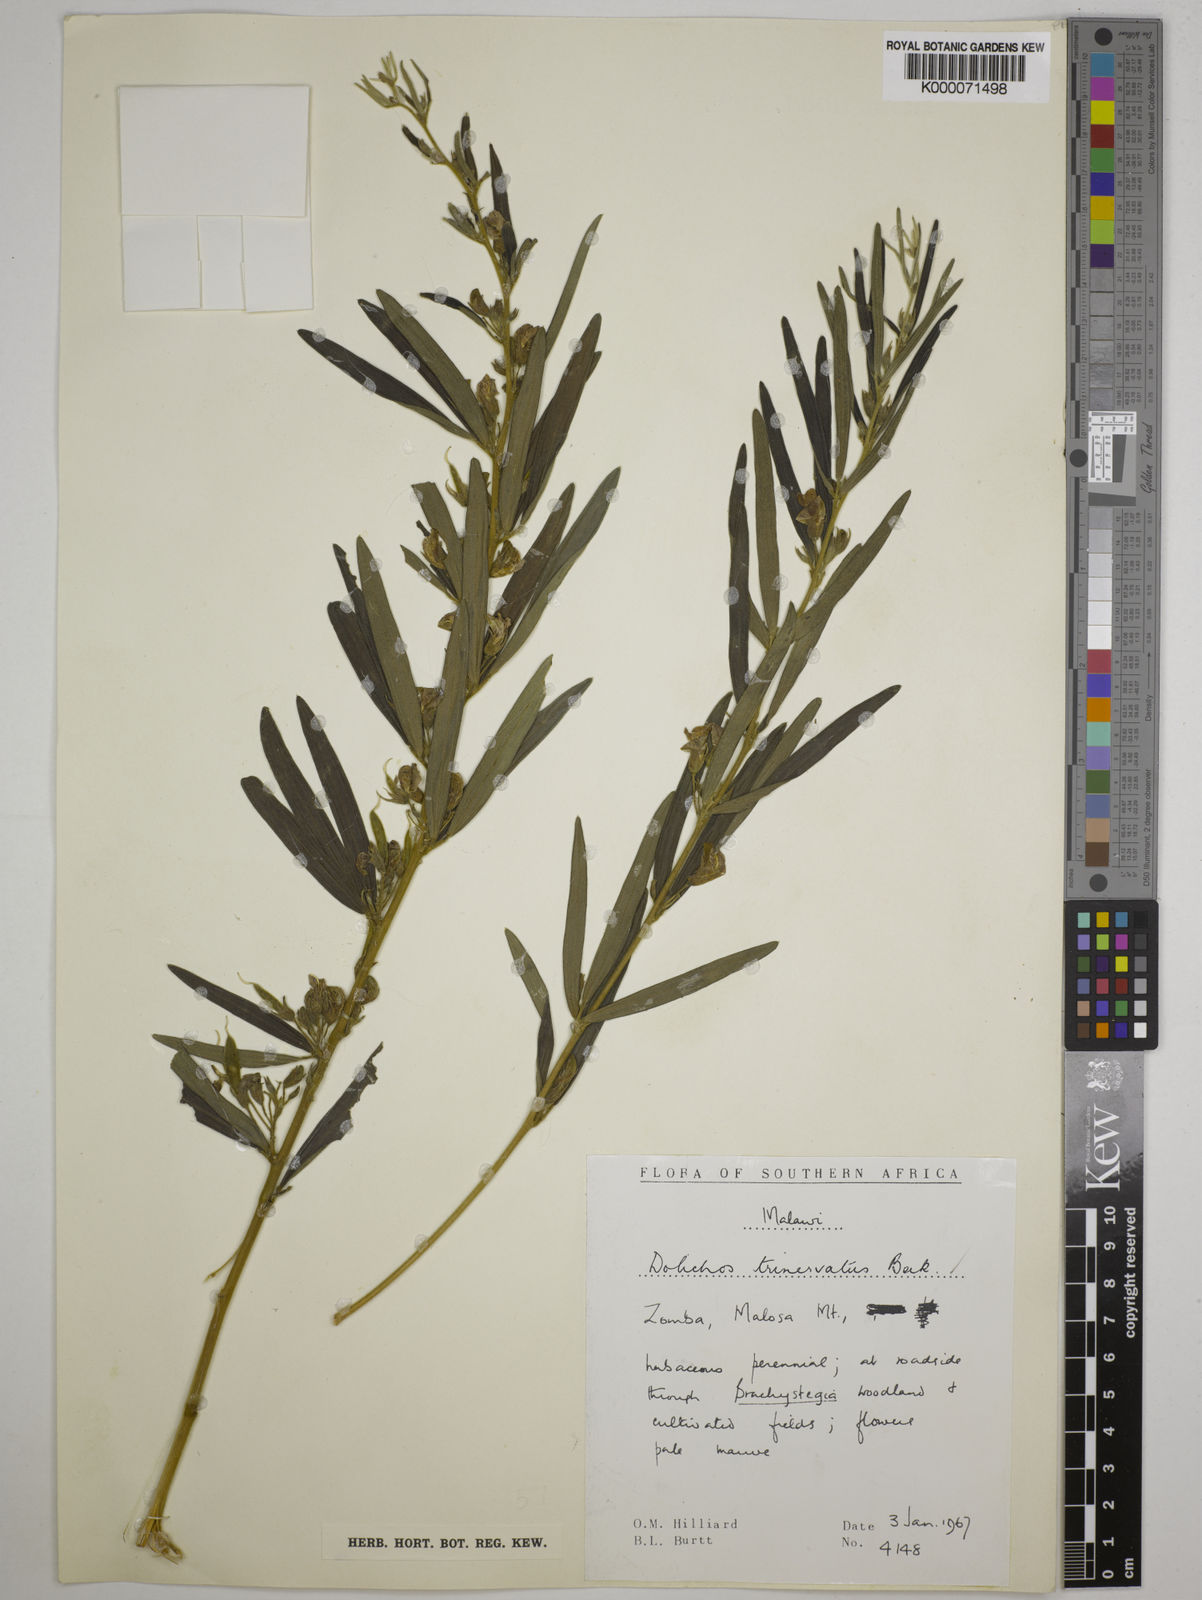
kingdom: Plantae
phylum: Tracheophyta
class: Magnoliopsida
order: Fabales
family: Fabaceae
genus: Dolichos
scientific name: Dolichos trinervatus
